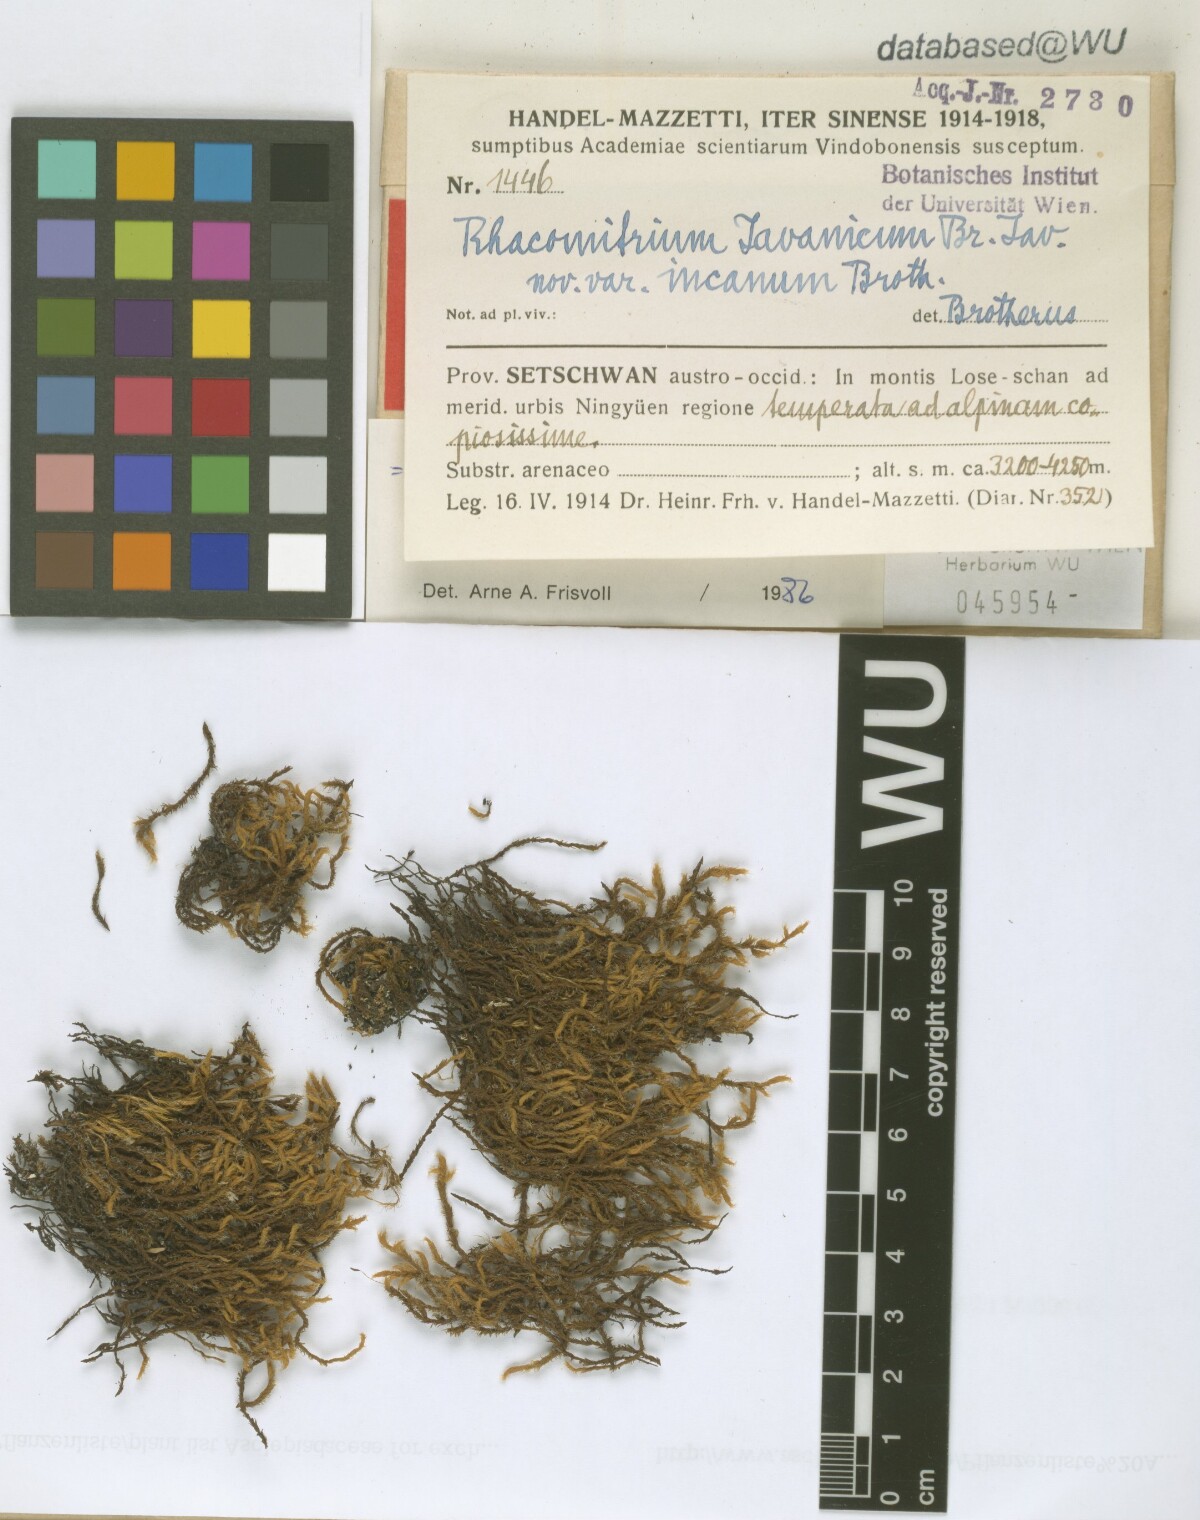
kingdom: Plantae
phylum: Bryophyta
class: Bryopsida
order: Grimmiales
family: Grimmiaceae
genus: Bucklandiella
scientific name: Bucklandiella subsecunda
